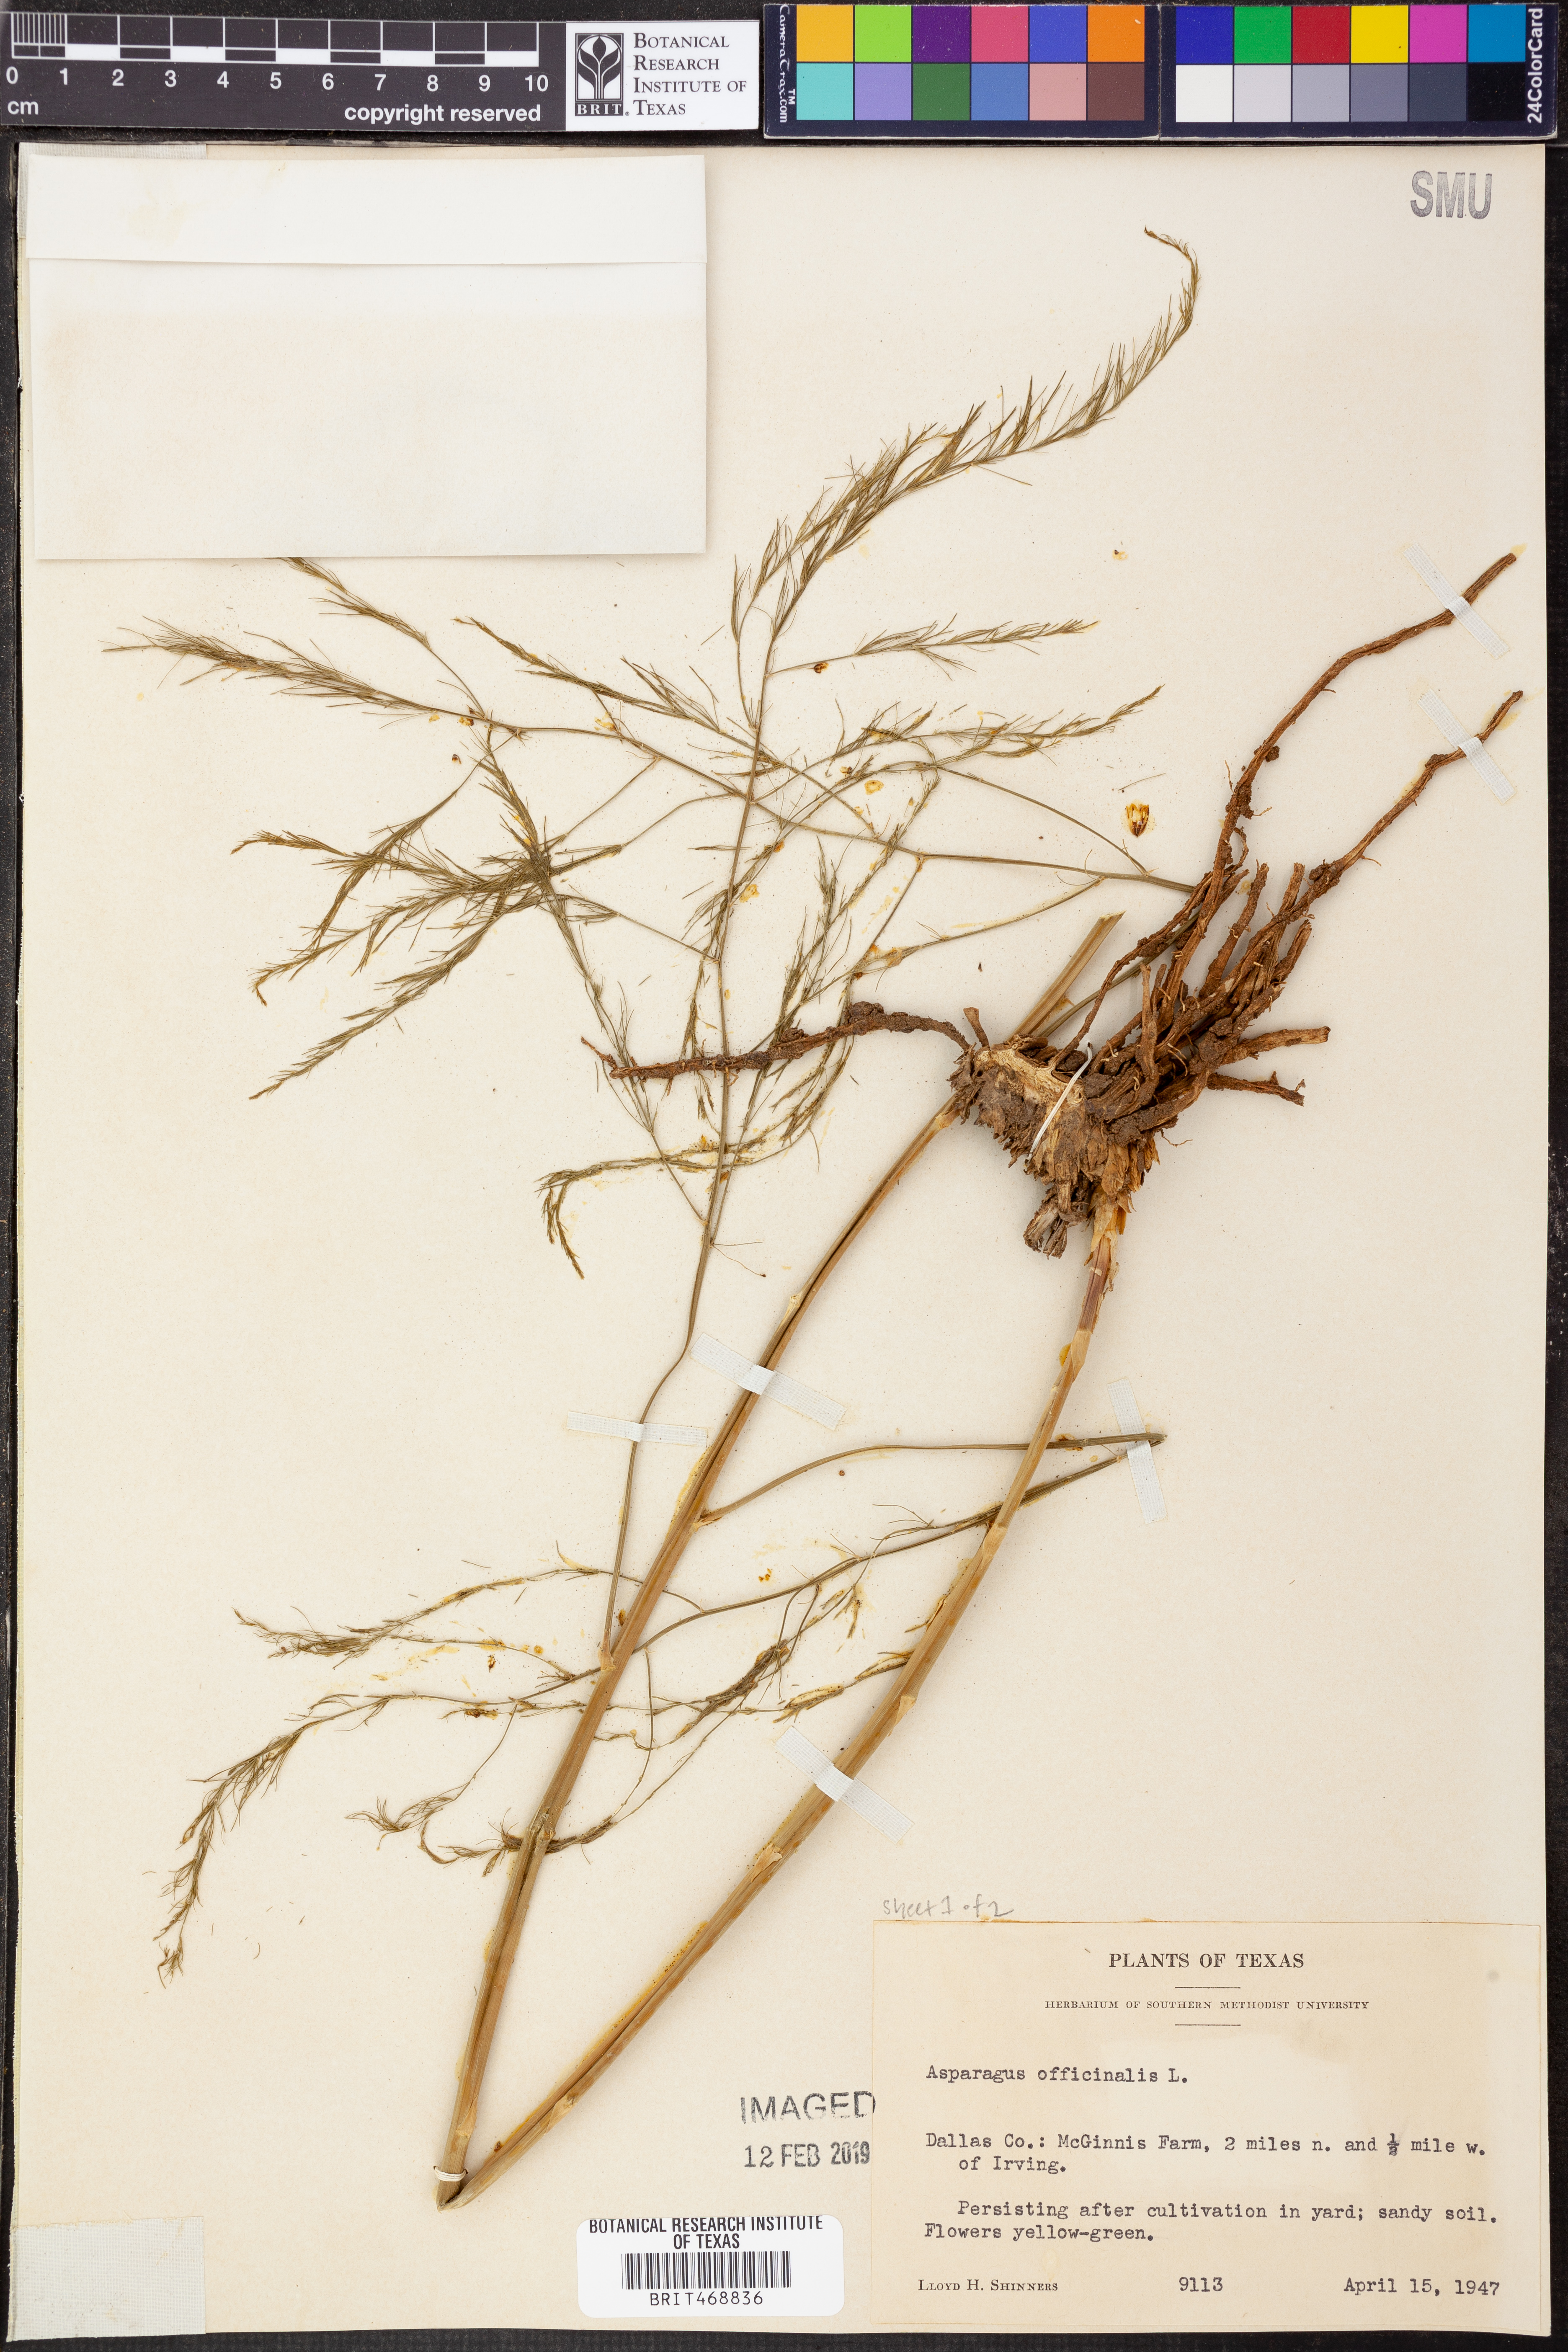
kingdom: Plantae
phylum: Tracheophyta
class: Liliopsida
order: Asparagales
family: Asparagaceae
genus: Asparagus
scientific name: Asparagus officinalis
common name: Garden asparagus
